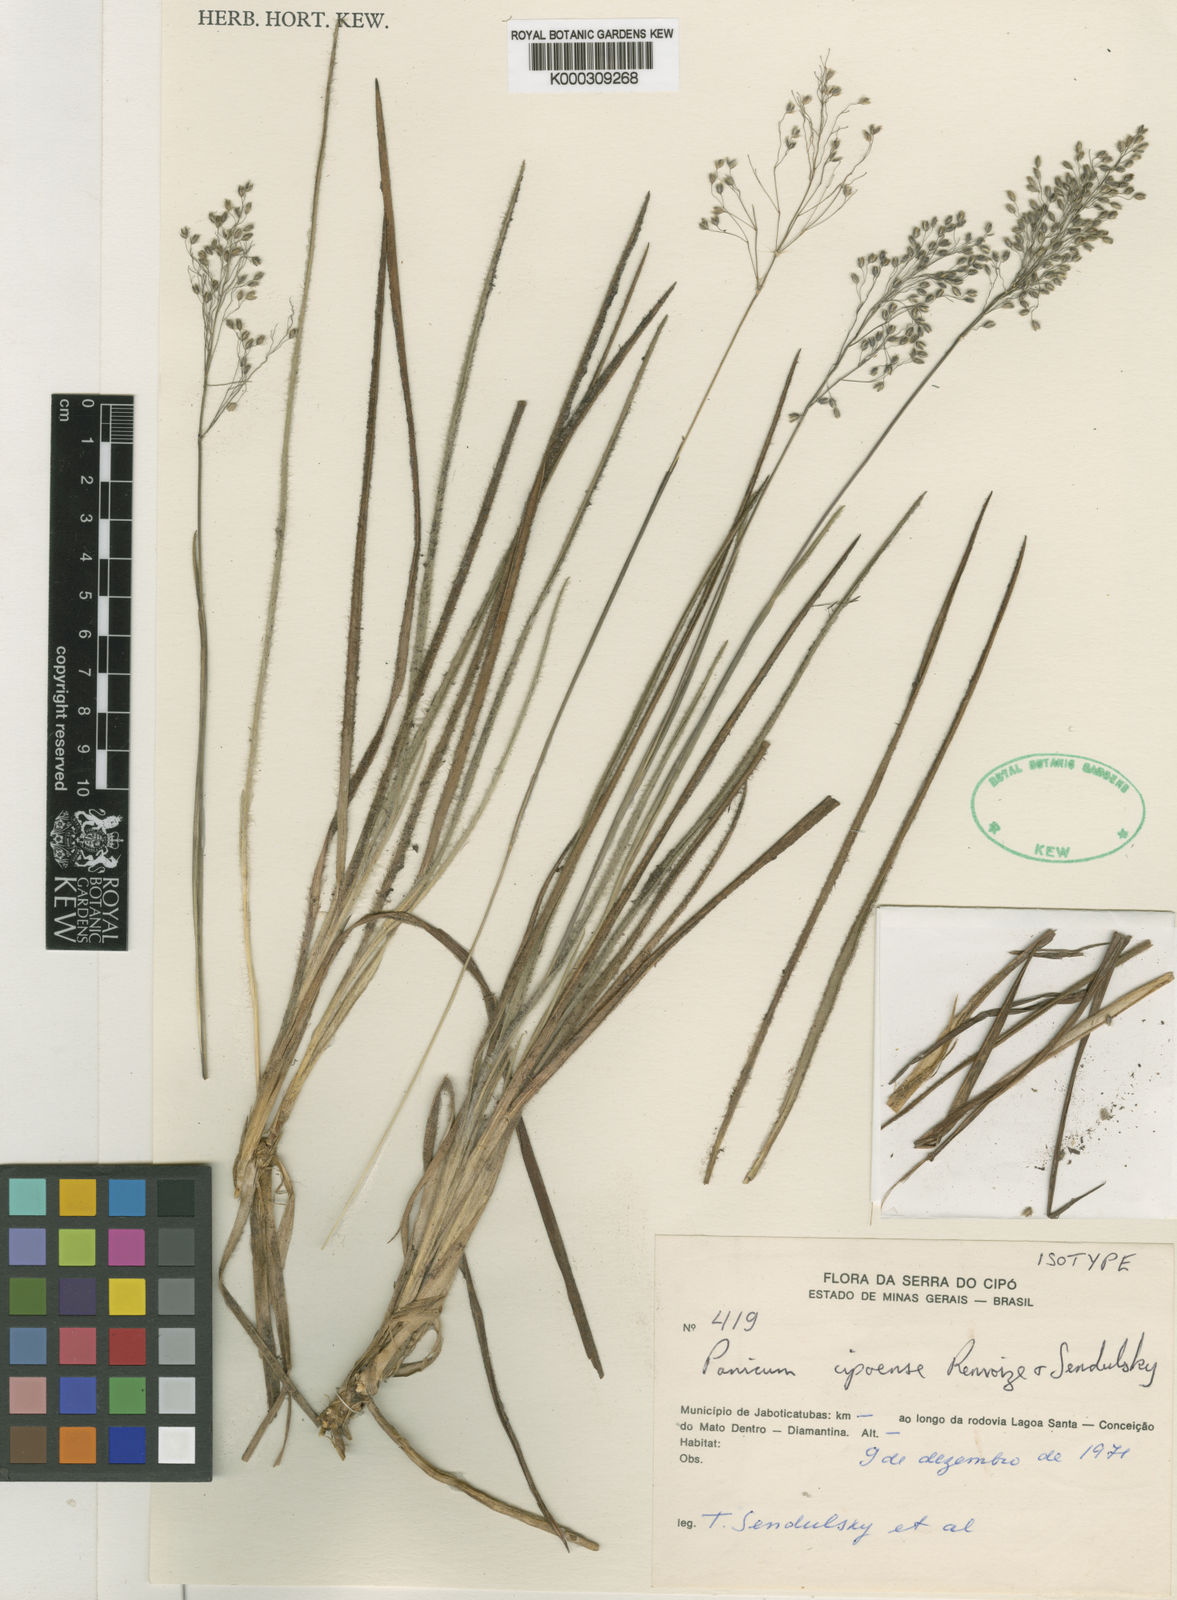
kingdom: Plantae
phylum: Tracheophyta
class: Liliopsida
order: Poales
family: Poaceae
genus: Apochloa
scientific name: Apochloa cipoensis
